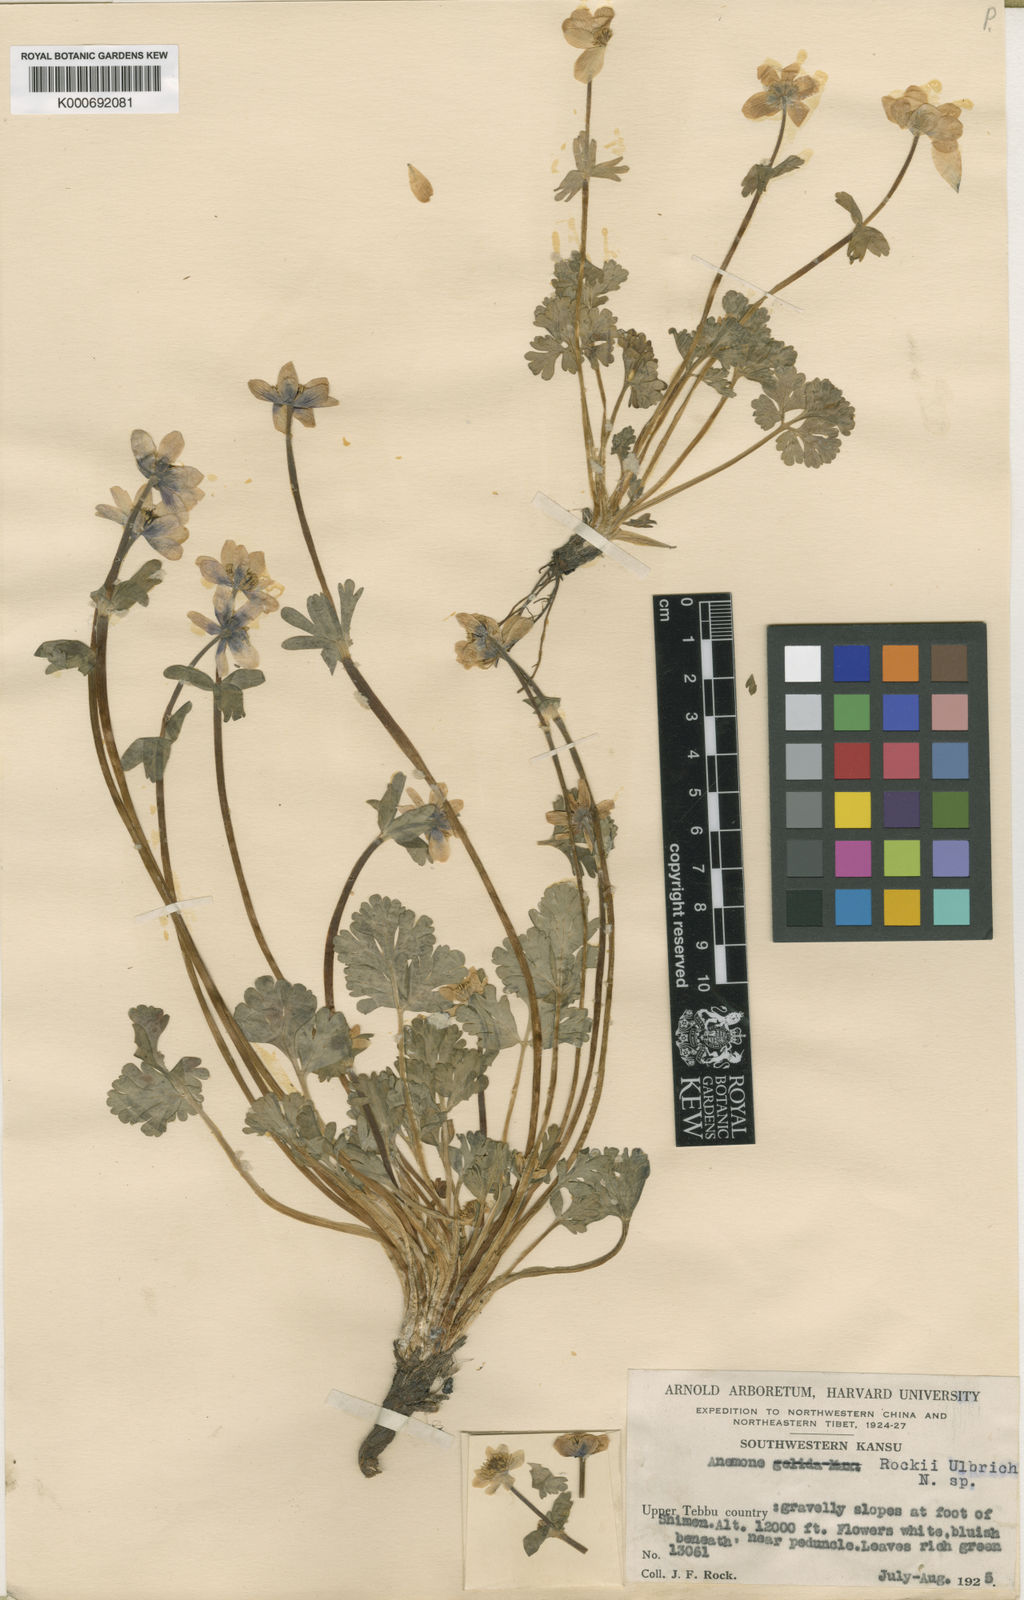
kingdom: Plantae
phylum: Tracheophyta
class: Magnoliopsida
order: Ranunculales
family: Ranunculaceae
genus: Anemonastrum
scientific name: Anemonastrum rockii
